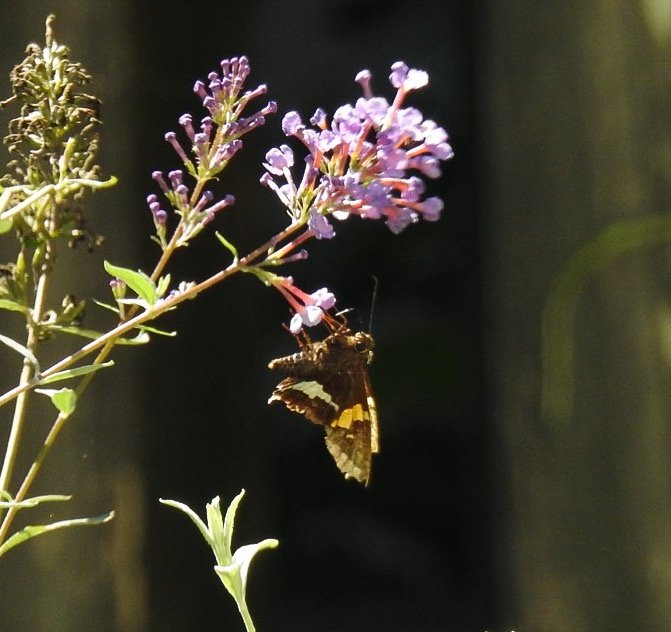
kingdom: Animalia
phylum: Arthropoda
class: Insecta
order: Lepidoptera
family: Hesperiidae
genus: Epargyreus
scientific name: Epargyreus clarus
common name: Silver-spotted Skipper
